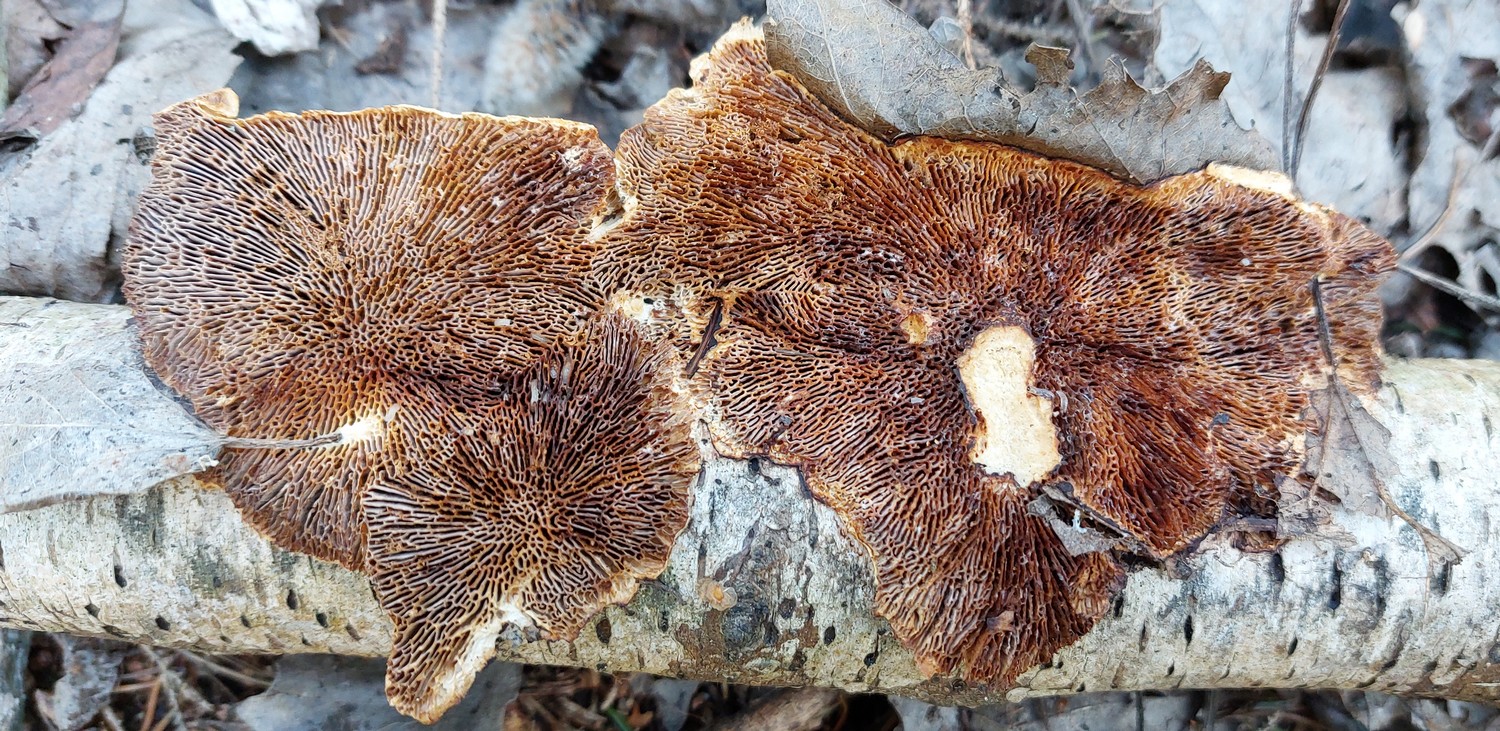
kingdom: Fungi
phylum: Basidiomycota
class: Agaricomycetes
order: Polyporales
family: Polyporaceae
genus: Lenzites
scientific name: Lenzites betulinus
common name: birke-læderporesvamp
